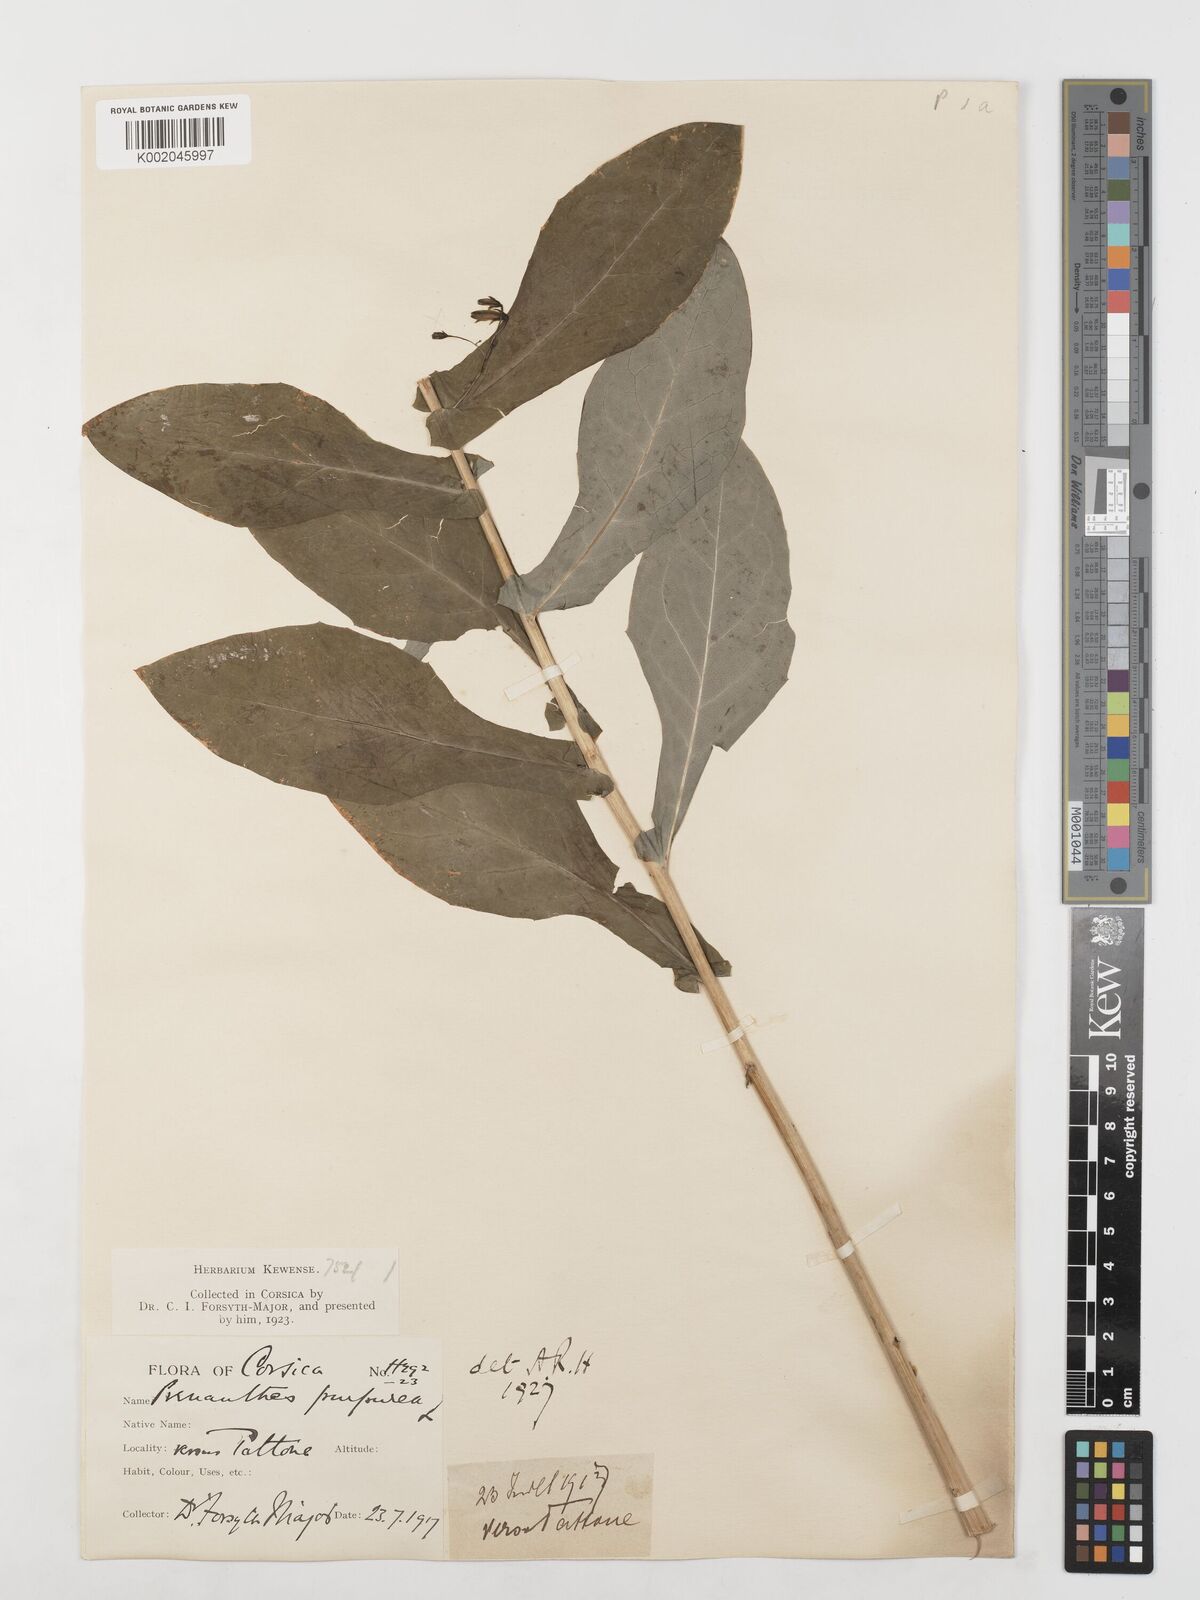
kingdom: Plantae
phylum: Tracheophyta
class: Magnoliopsida
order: Asterales
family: Asteraceae
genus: Prenanthes
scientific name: Prenanthes purpurea
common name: Purple lettuce
